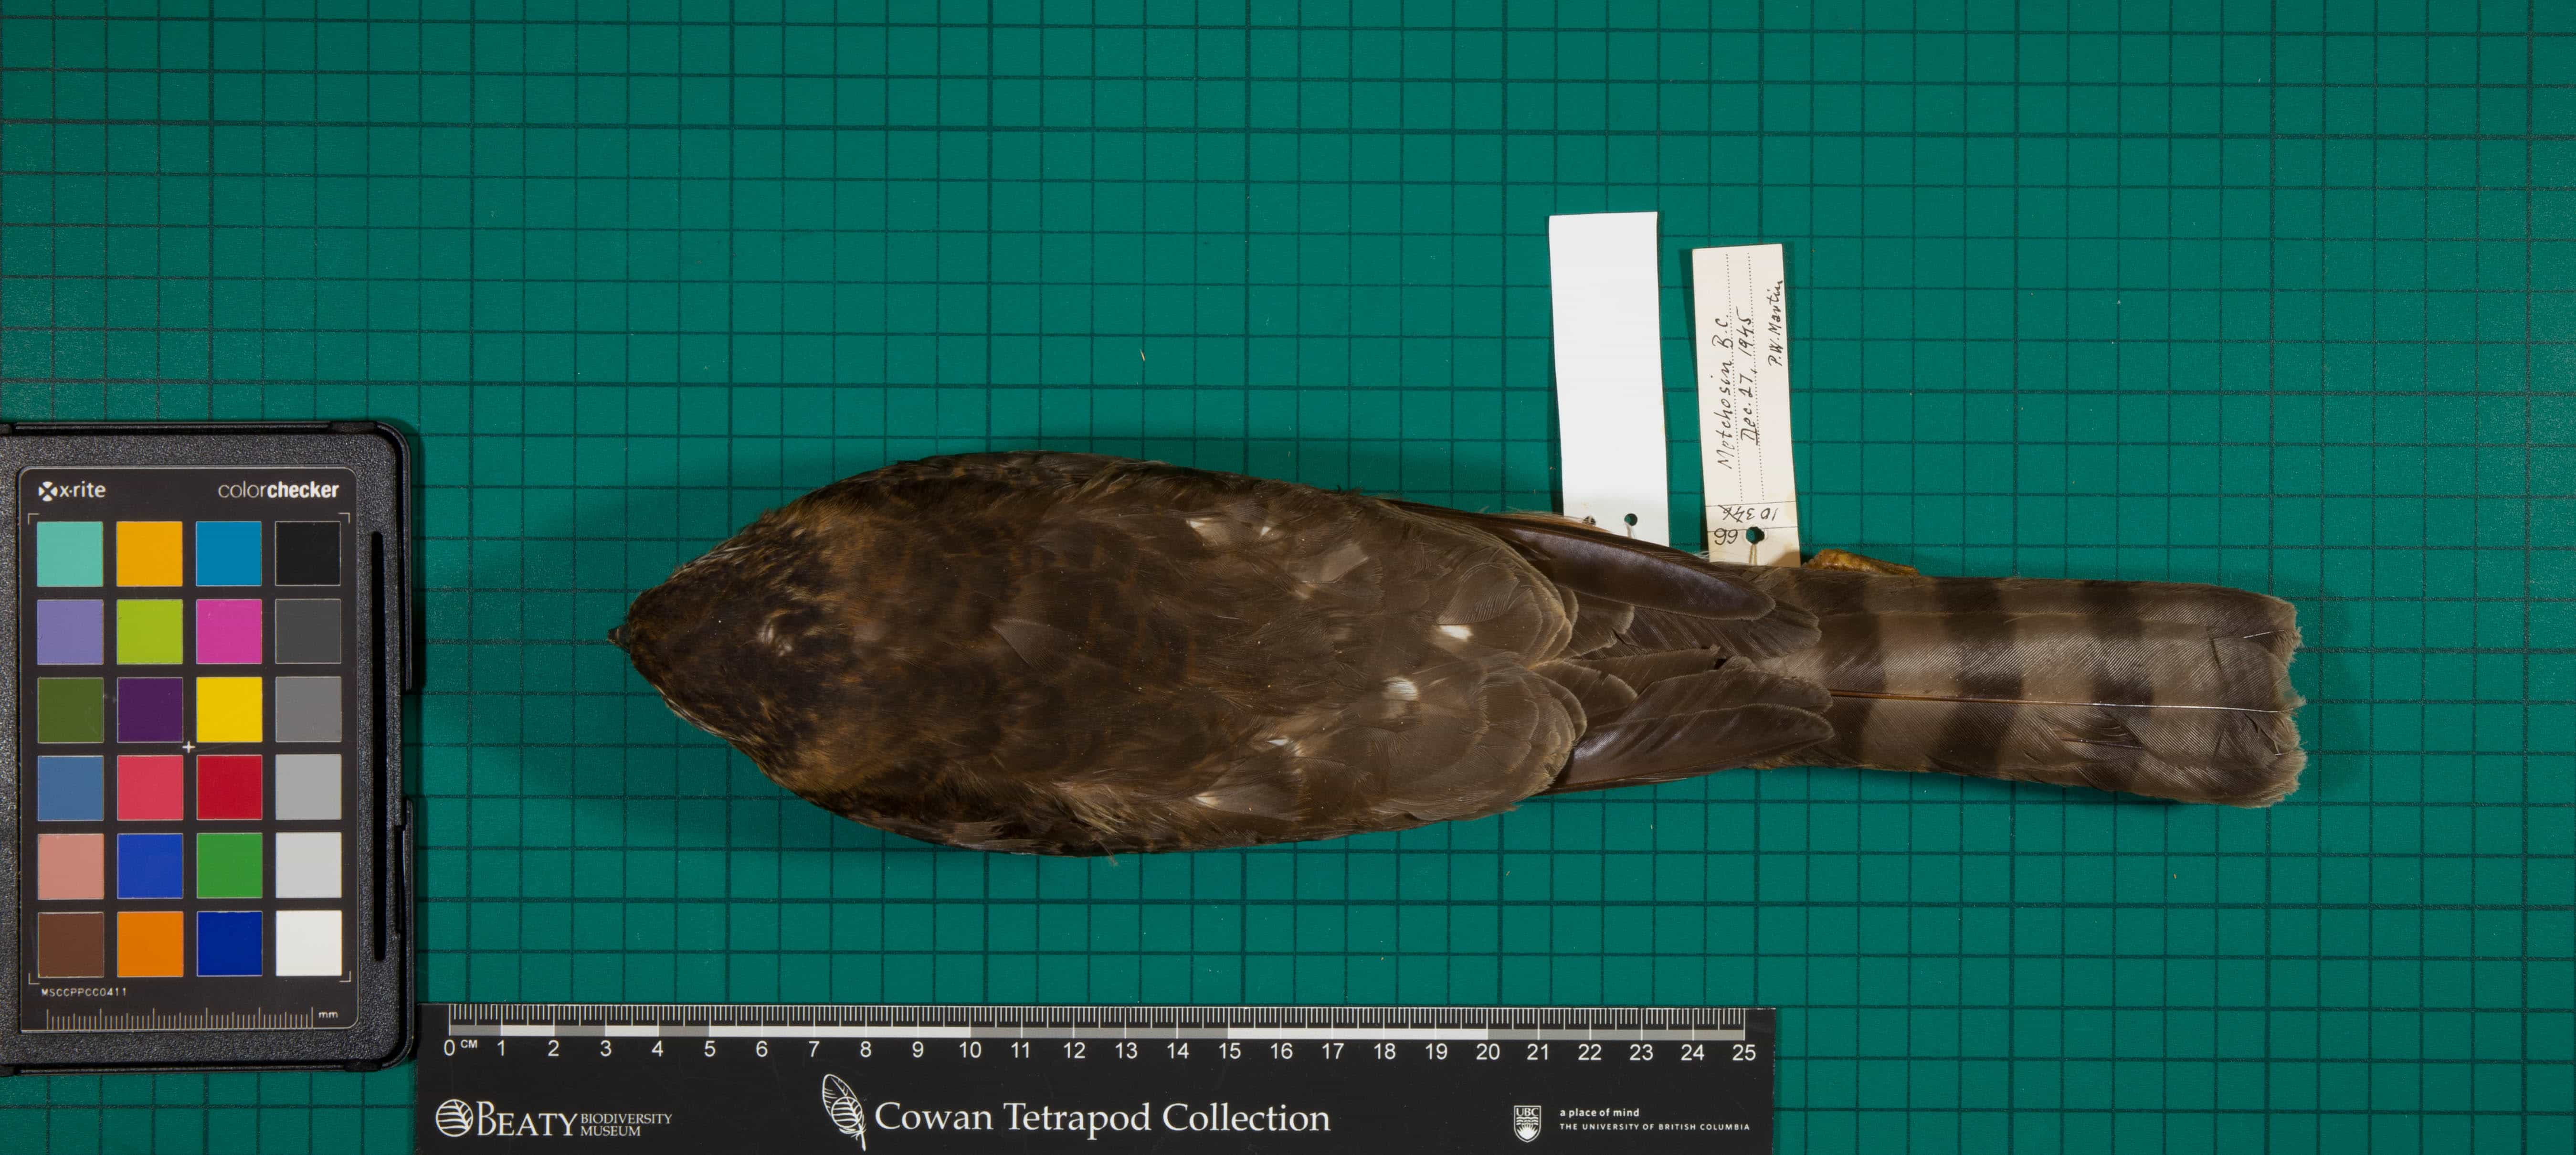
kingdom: Animalia
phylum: Chordata
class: Aves
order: Accipitriformes
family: Accipitridae
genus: Accipiter
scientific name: Accipiter striatus
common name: Sharp-shinned Hawk
